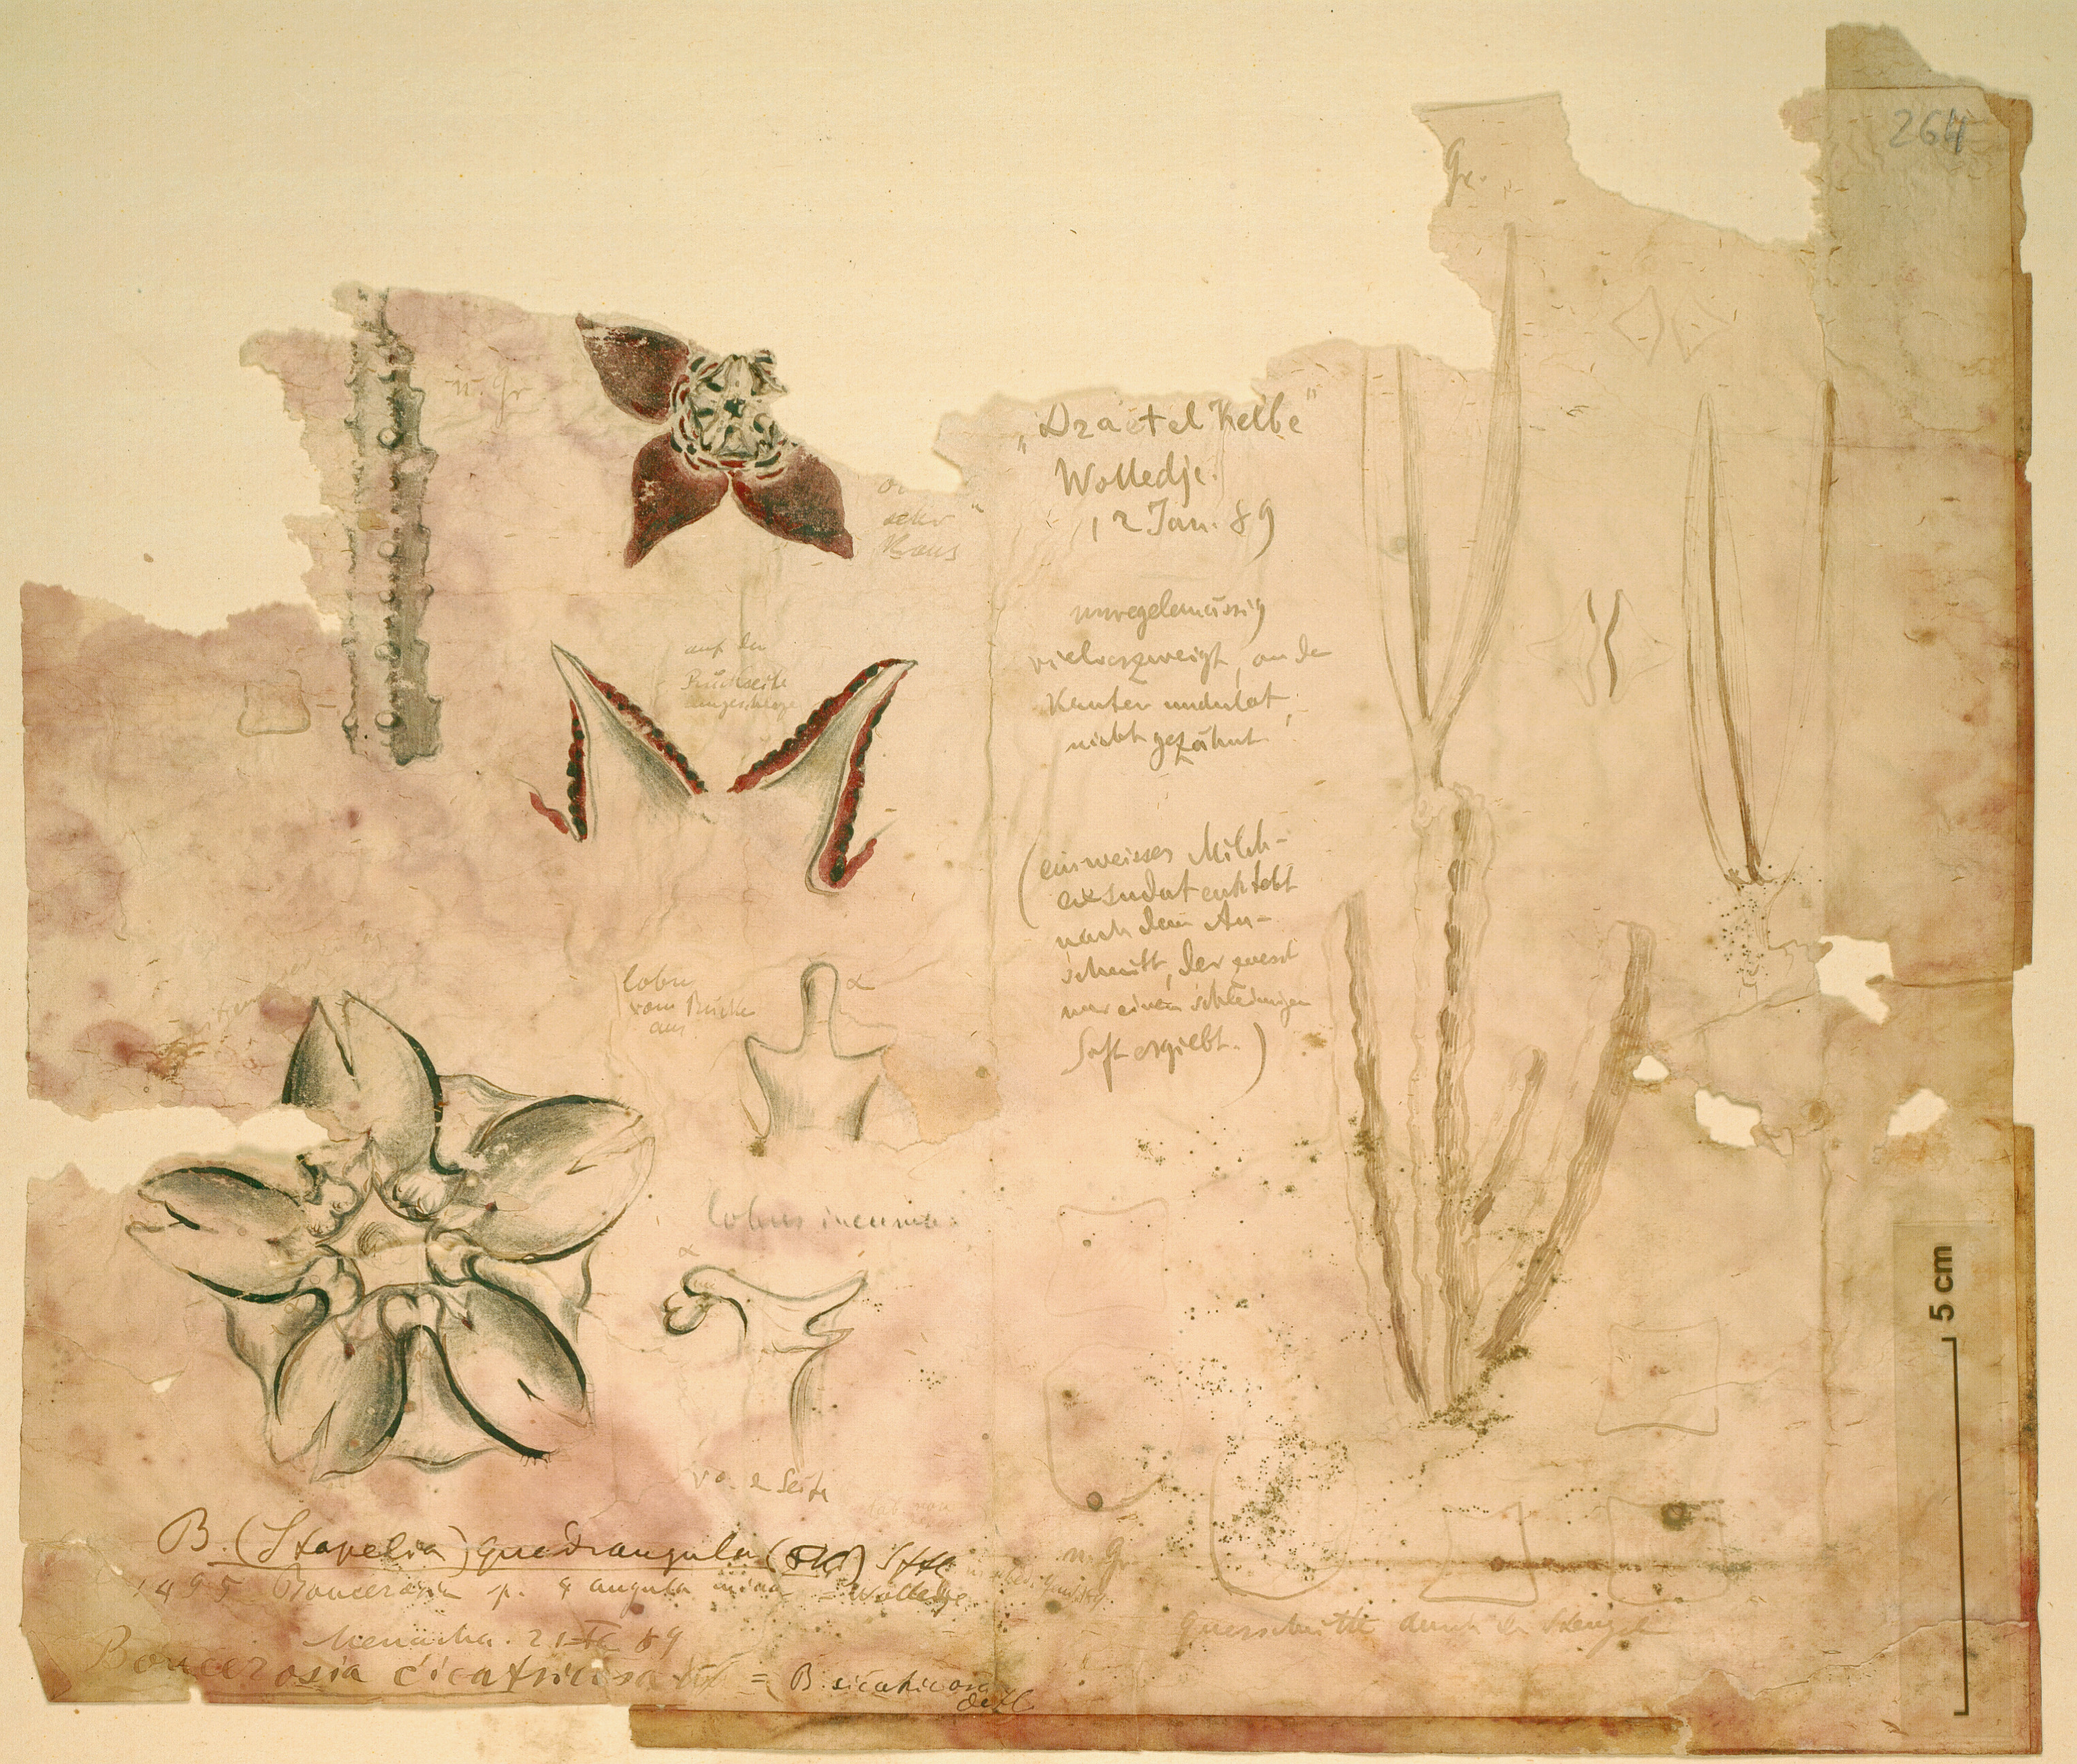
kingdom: Plantae
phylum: Tracheophyta
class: Magnoliopsida
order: Gentianales
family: Apocynaceae
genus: Ceropegia
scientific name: Ceropegia cicatricosa
